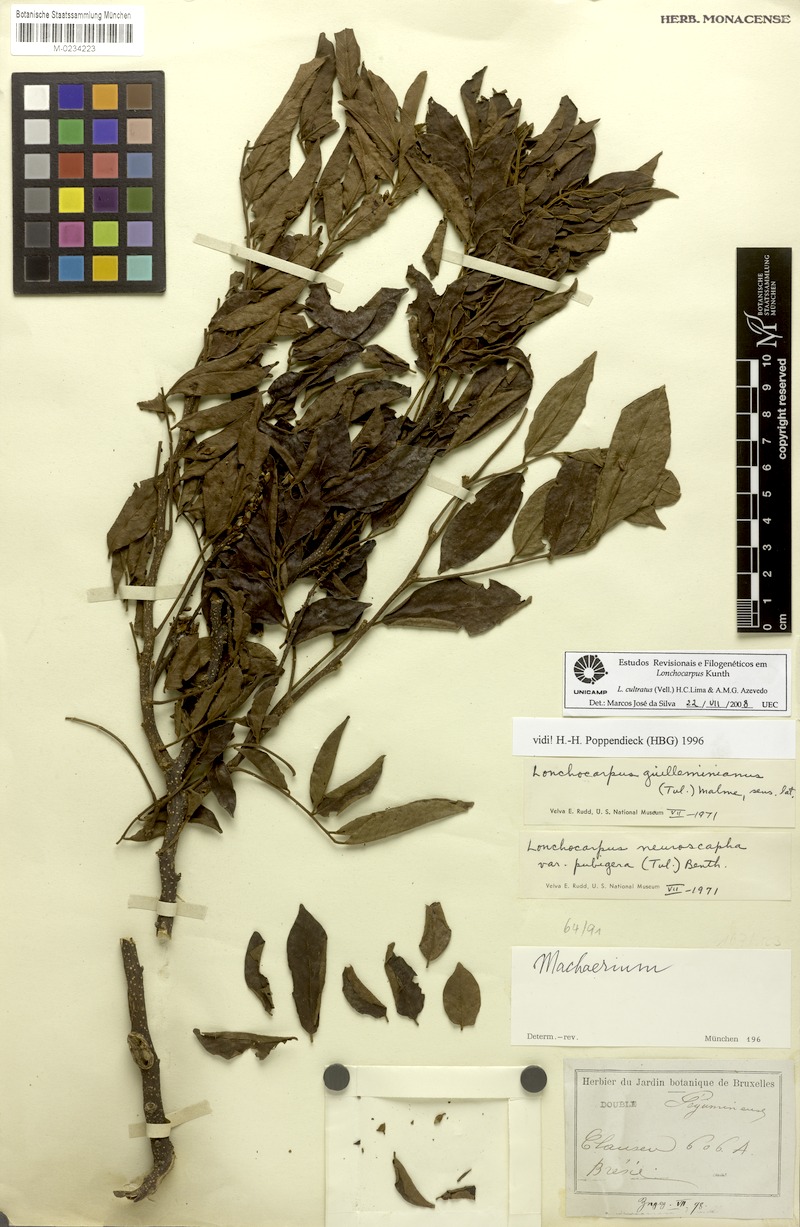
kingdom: Plantae
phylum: Tracheophyta
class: Magnoliopsida
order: Fabales
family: Fabaceae
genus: Lonchocarpus
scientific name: Lonchocarpus cultratus
